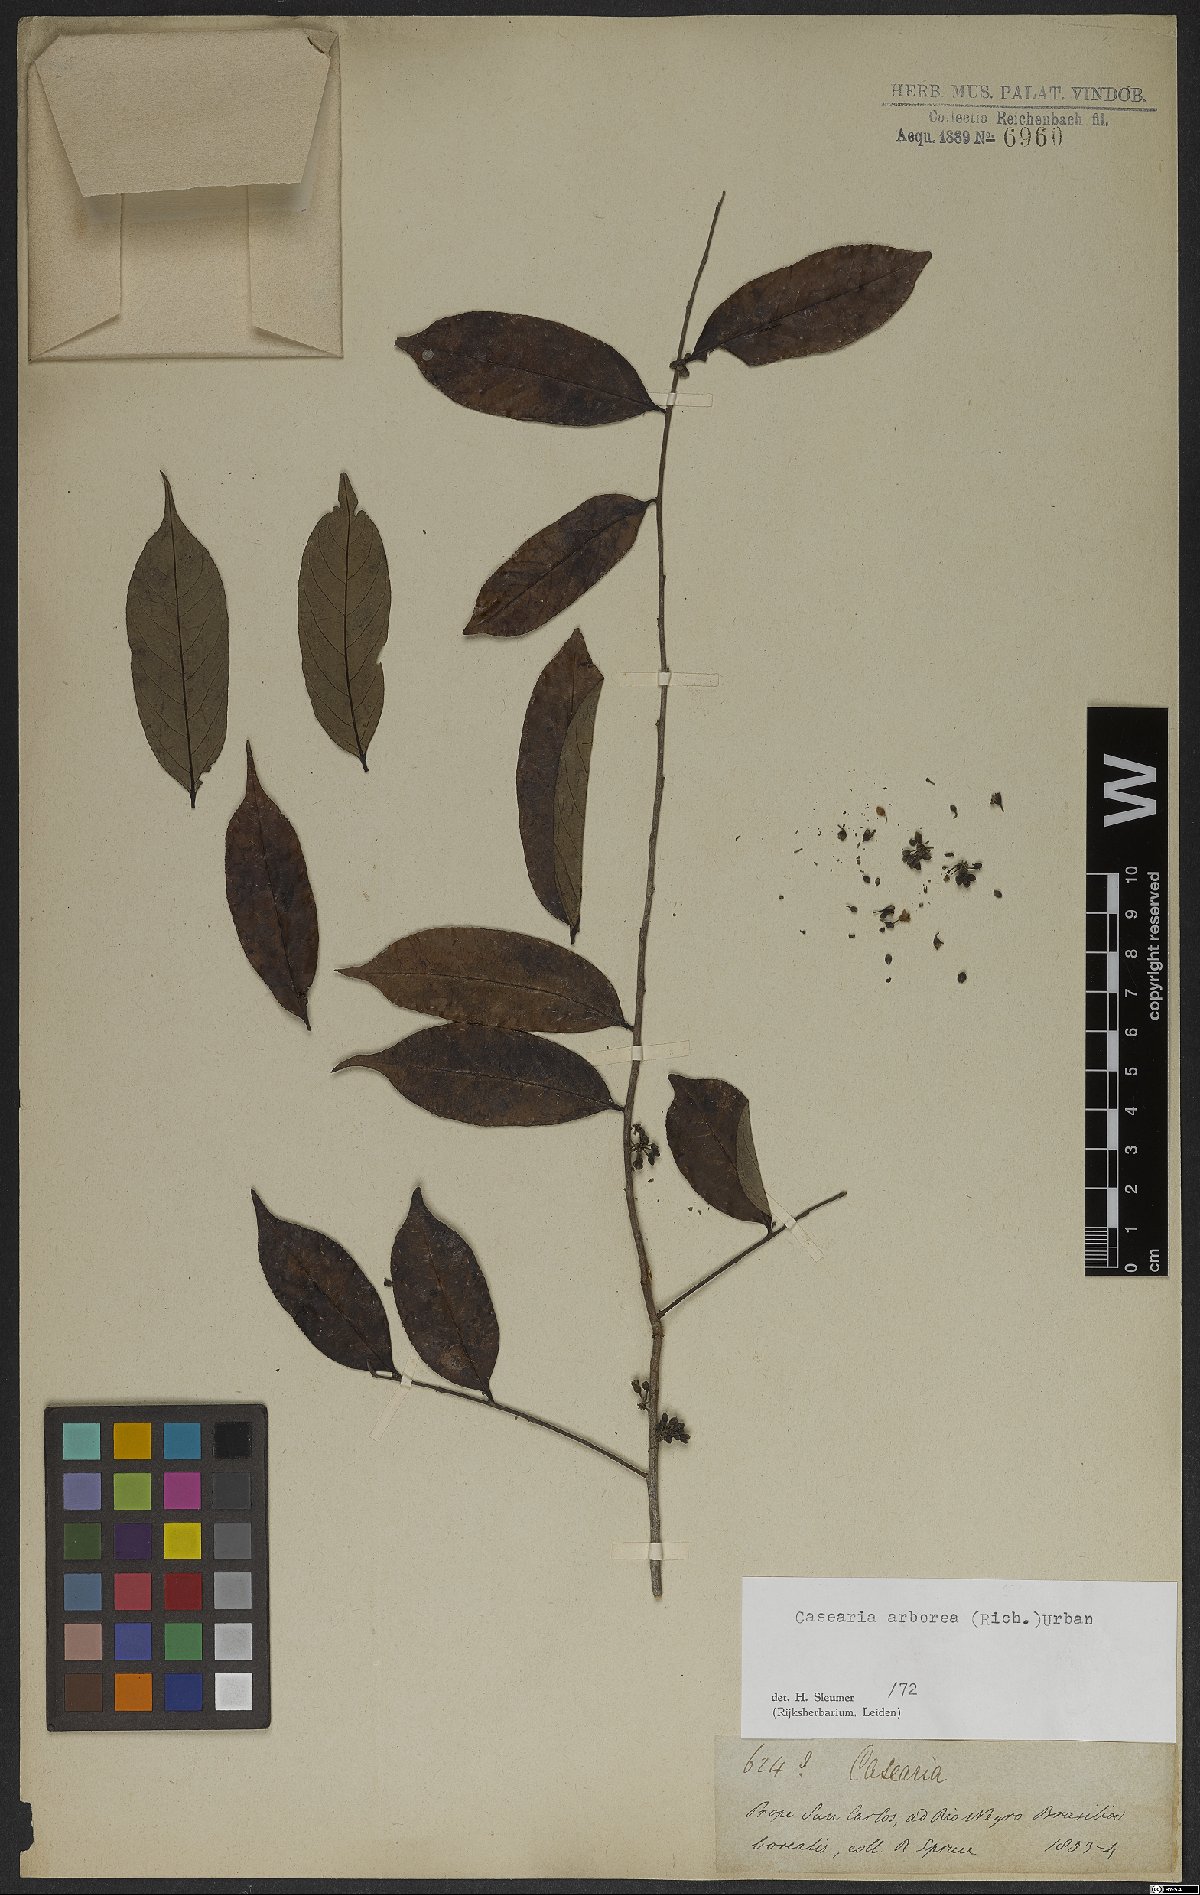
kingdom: Plantae
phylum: Tracheophyta
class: Magnoliopsida
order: Malpighiales
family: Salicaceae
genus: Casearia
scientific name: Casearia arborea
